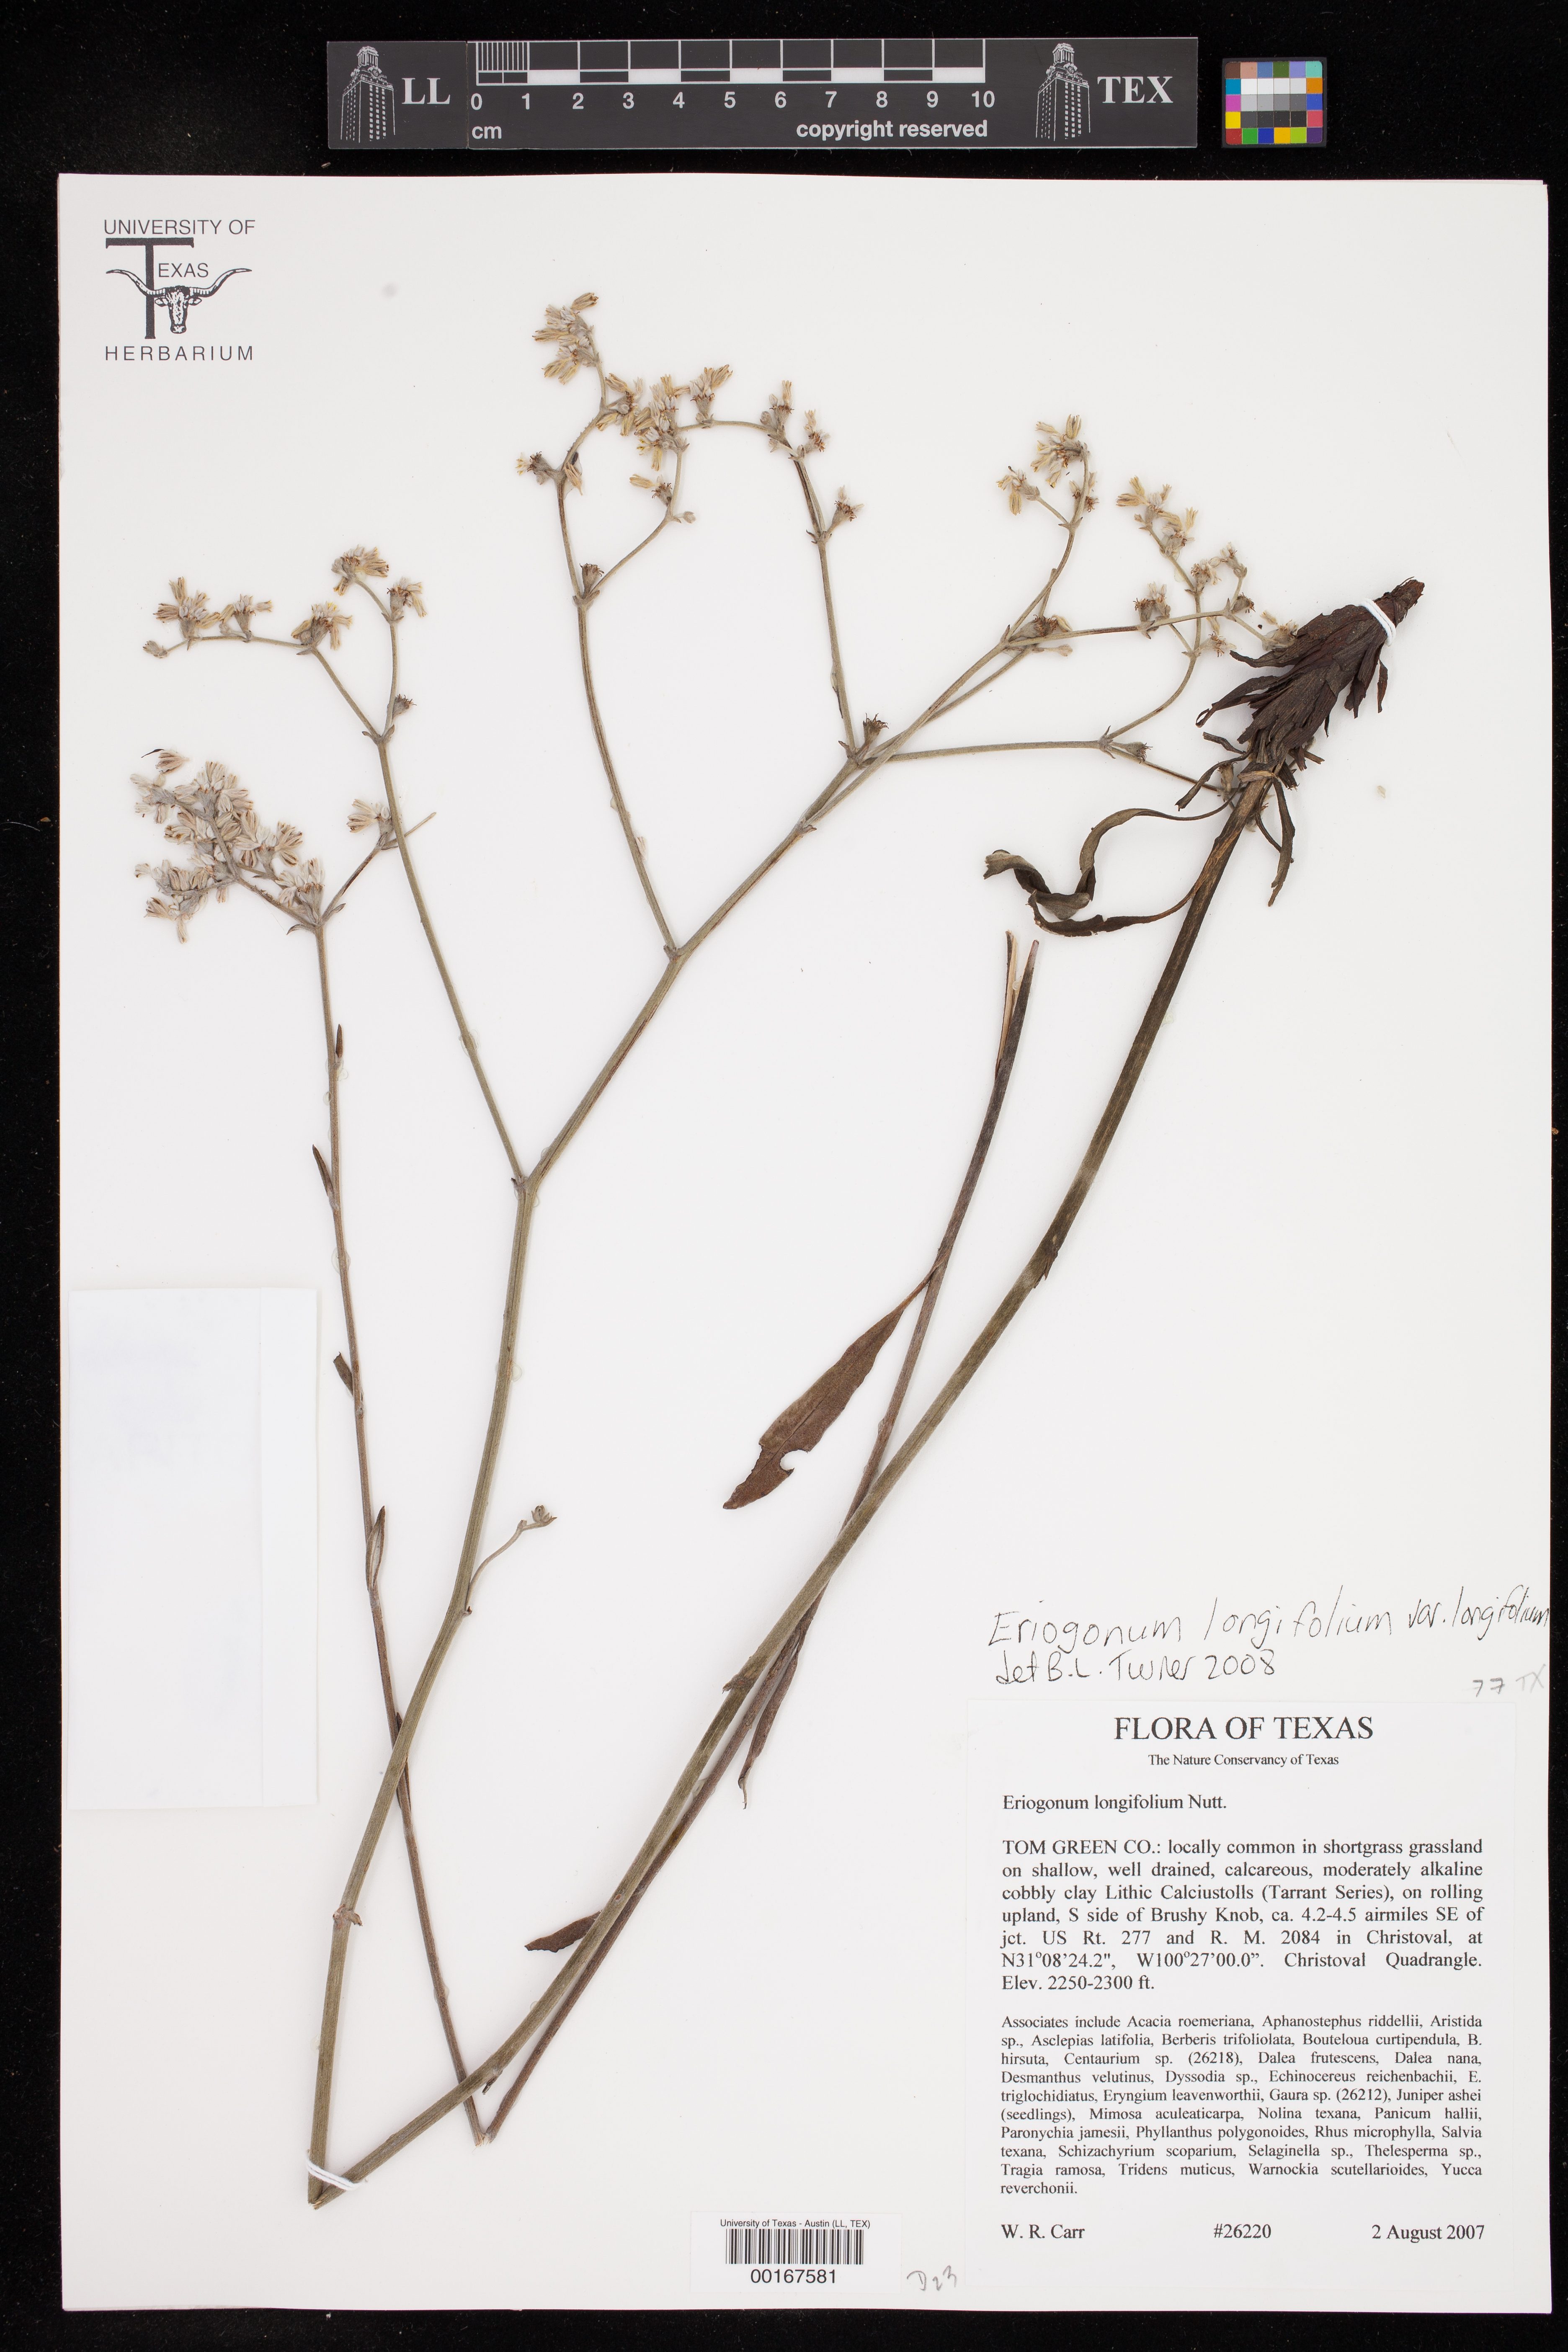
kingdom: Plantae
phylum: Tracheophyta
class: Magnoliopsida
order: Caryophyllales
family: Polygonaceae
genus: Eriogonum
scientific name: Eriogonum longifolium
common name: Longleaf wild buckwheat
